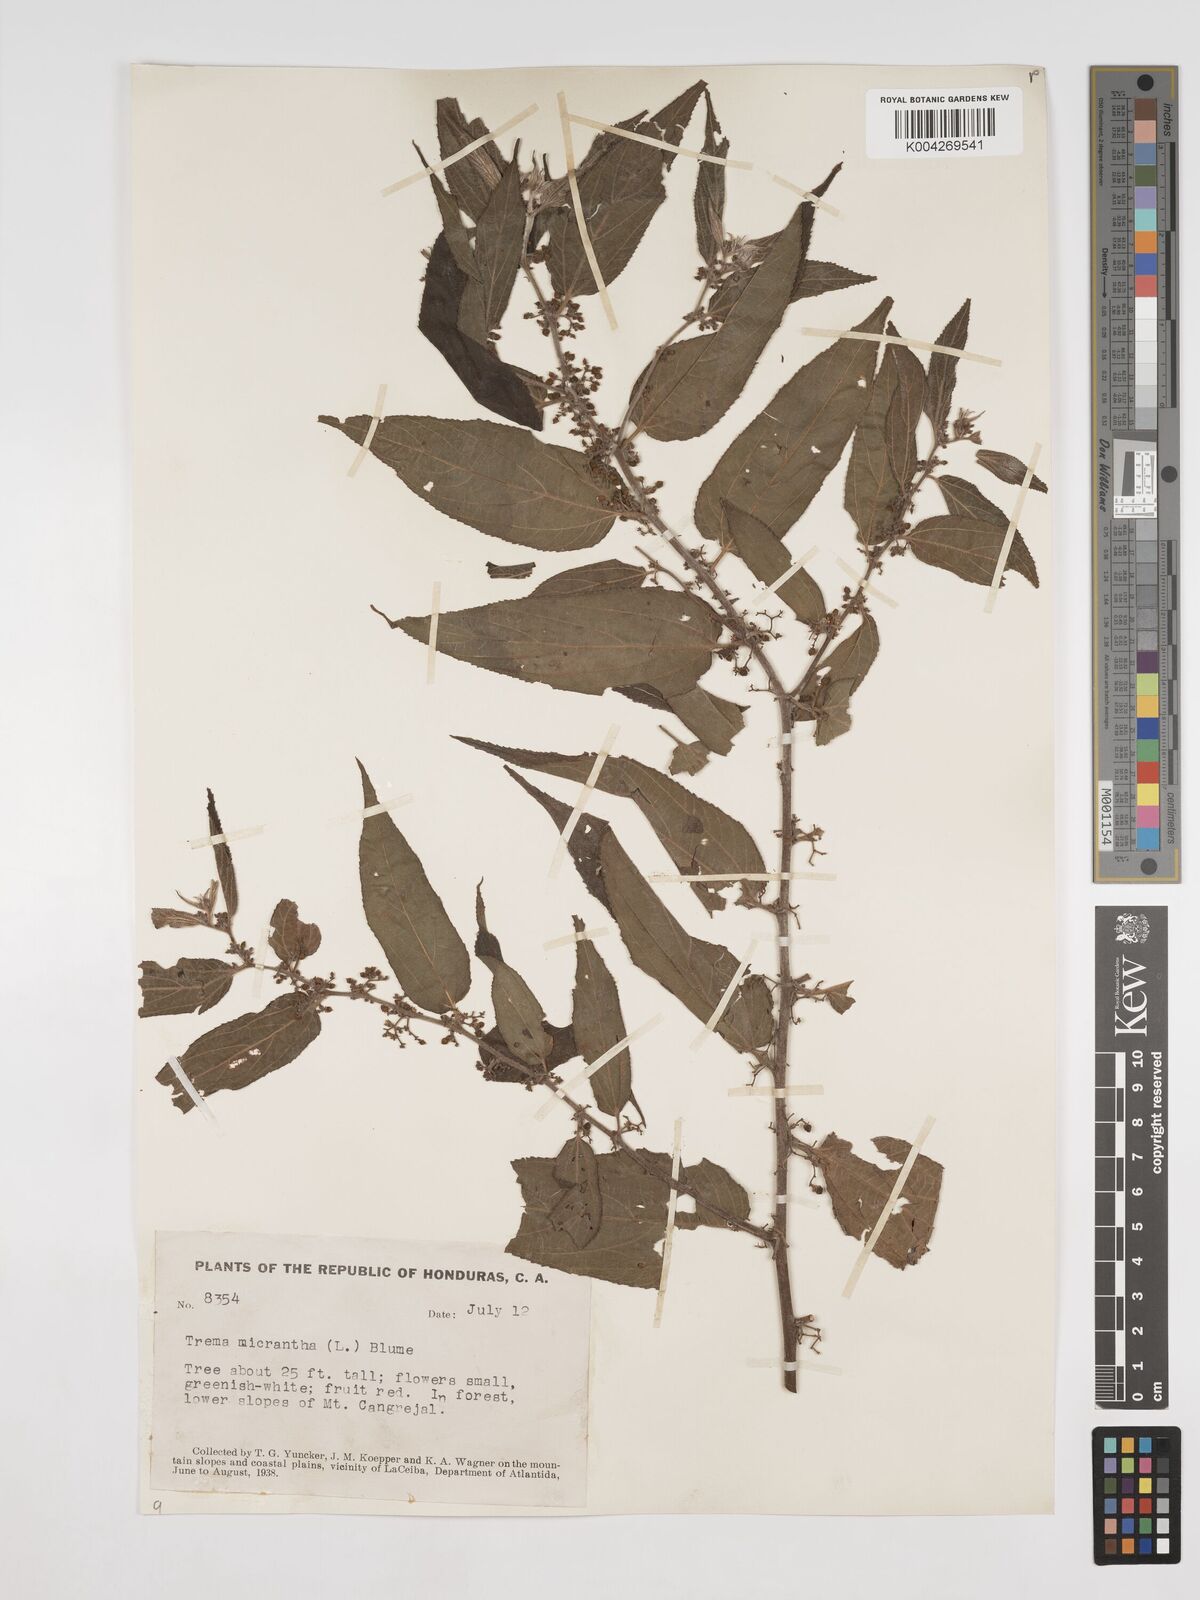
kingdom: Plantae
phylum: Tracheophyta
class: Magnoliopsida
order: Rosales
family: Cannabaceae
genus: Trema
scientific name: Trema micranthum
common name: Jamaican nettletree
